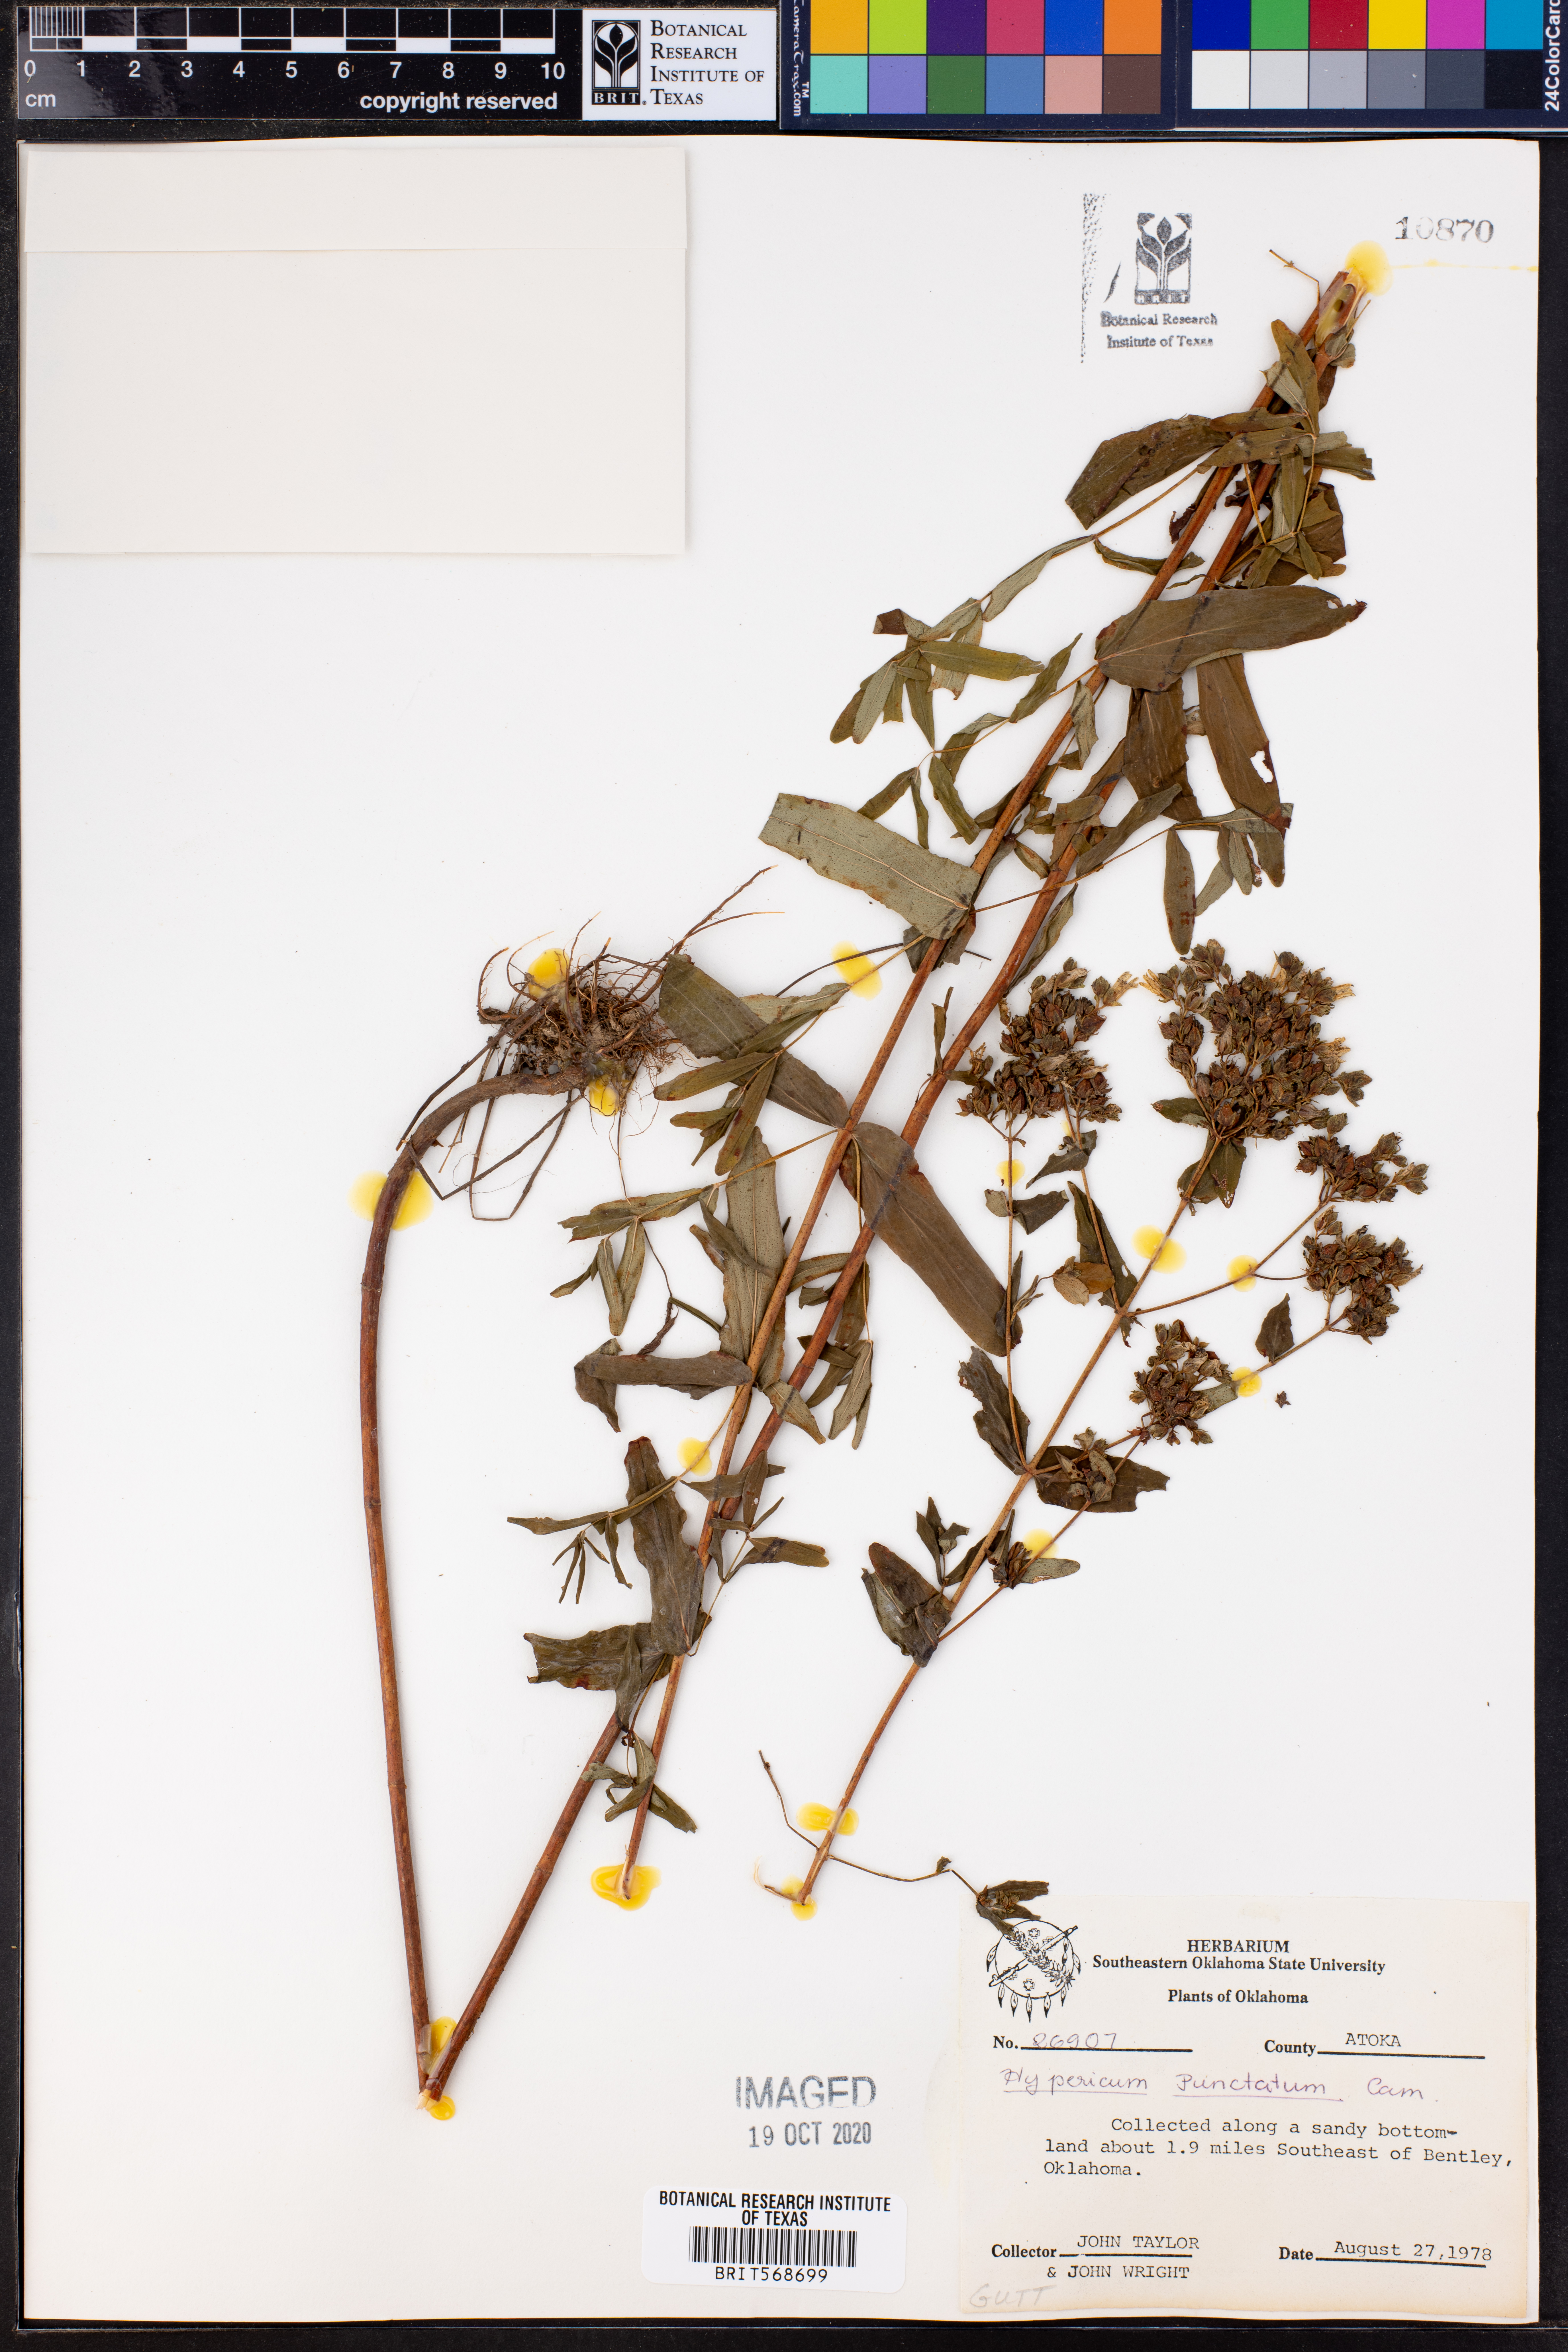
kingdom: Plantae
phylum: Tracheophyta
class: Magnoliopsida
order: Malpighiales
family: Hypericaceae
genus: Hypericum
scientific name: Hypericum punctatum
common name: Spotted st. john's-wort
